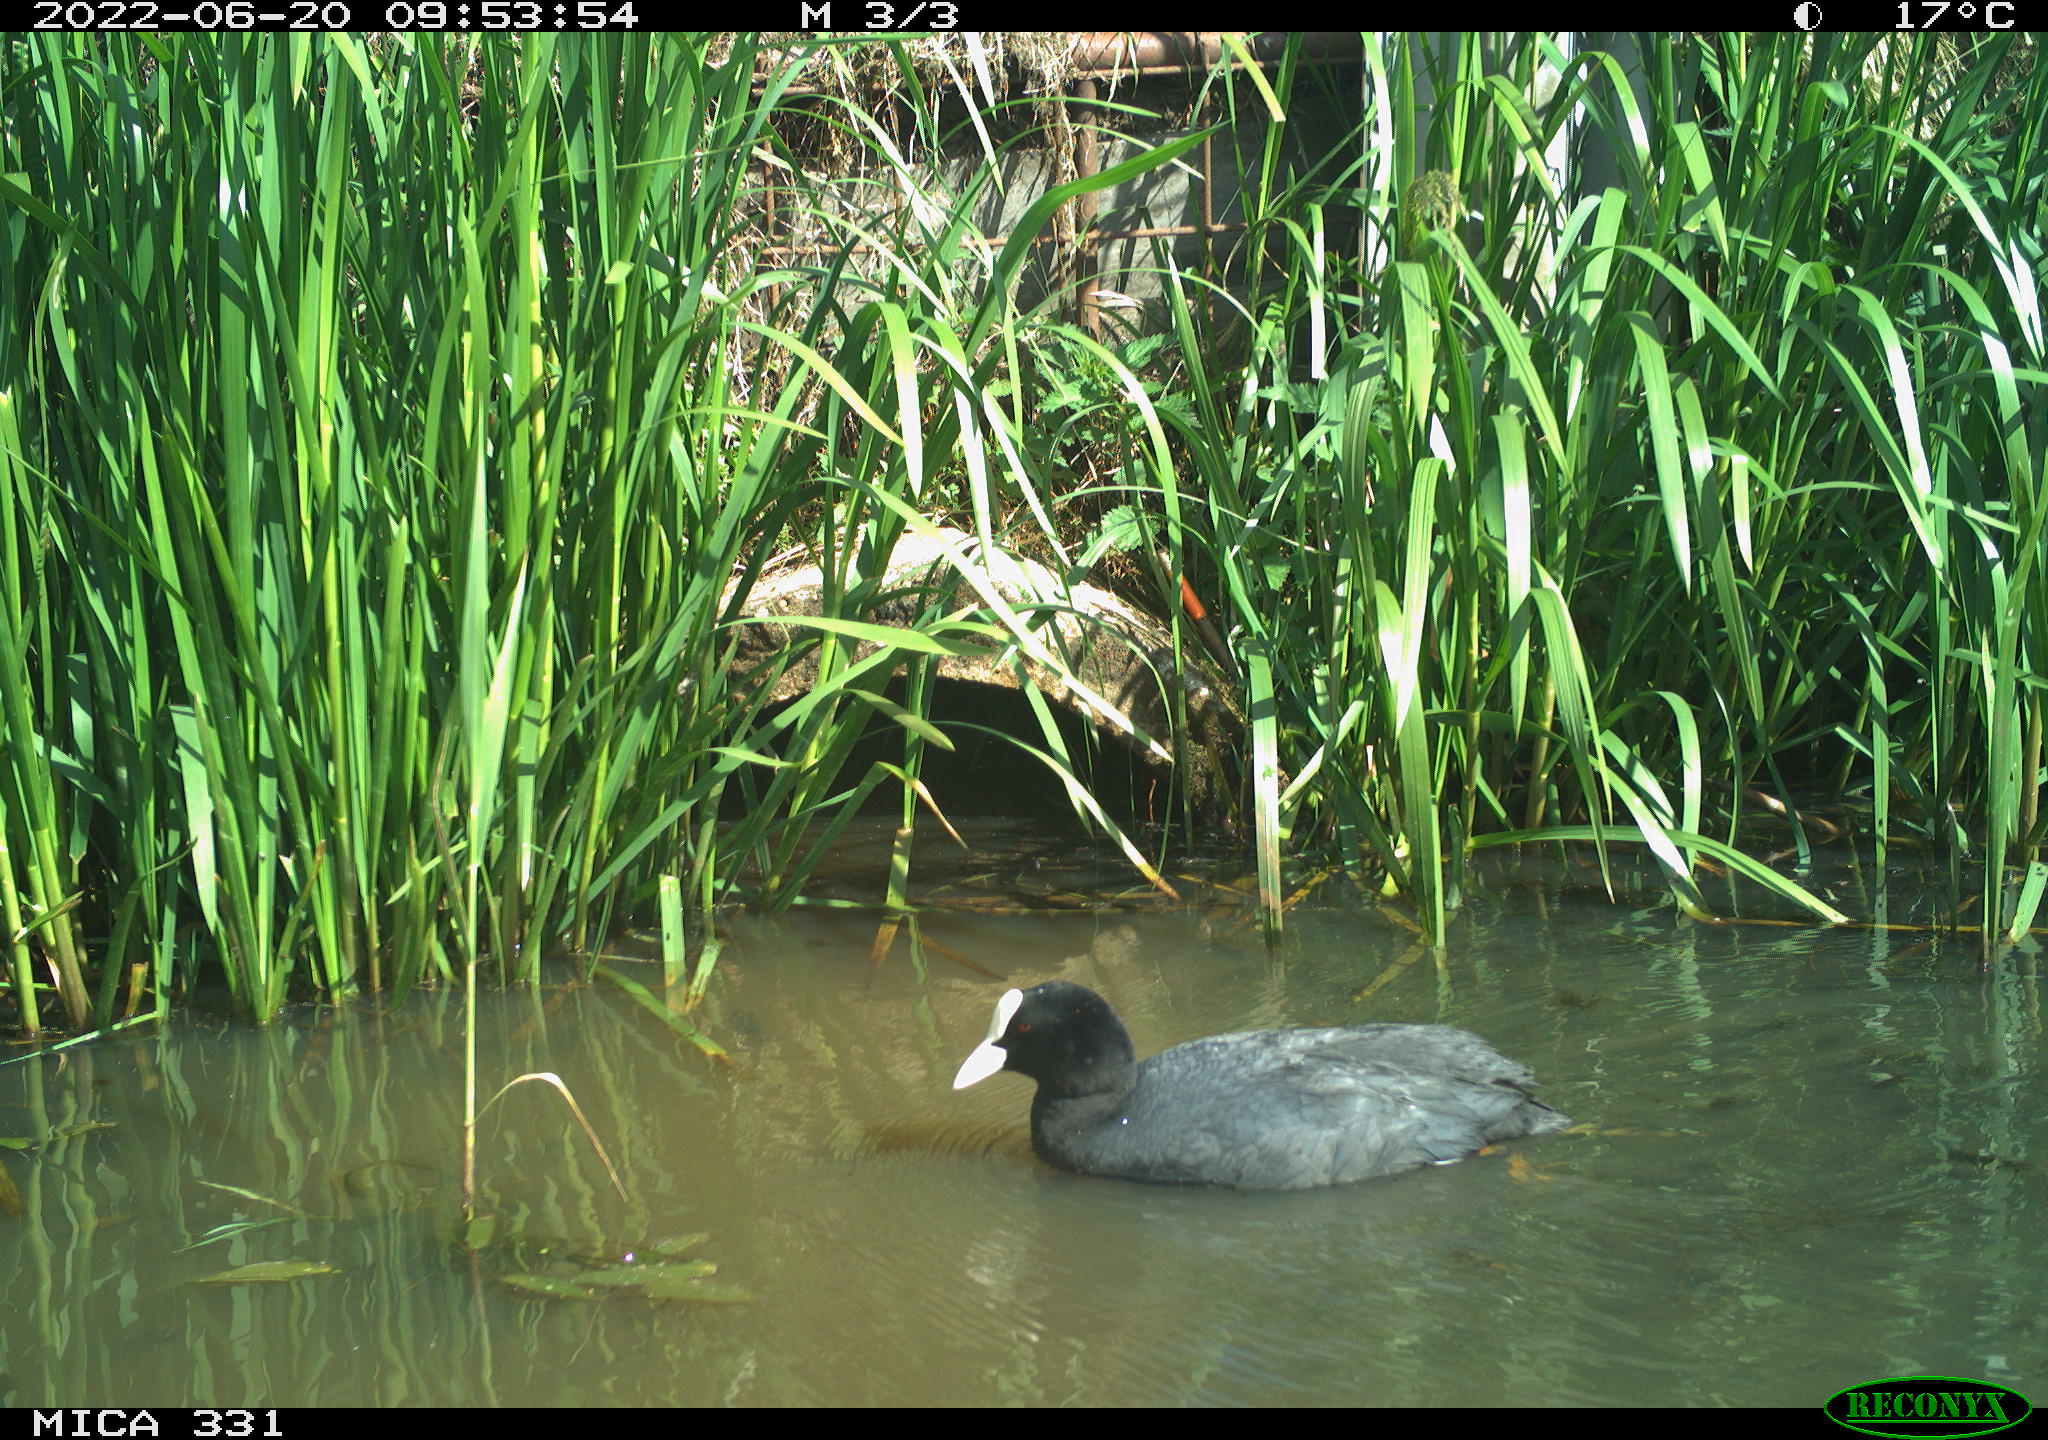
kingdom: Animalia
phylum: Chordata
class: Aves
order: Gruiformes
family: Rallidae
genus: Fulica
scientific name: Fulica atra
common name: Eurasian coot
